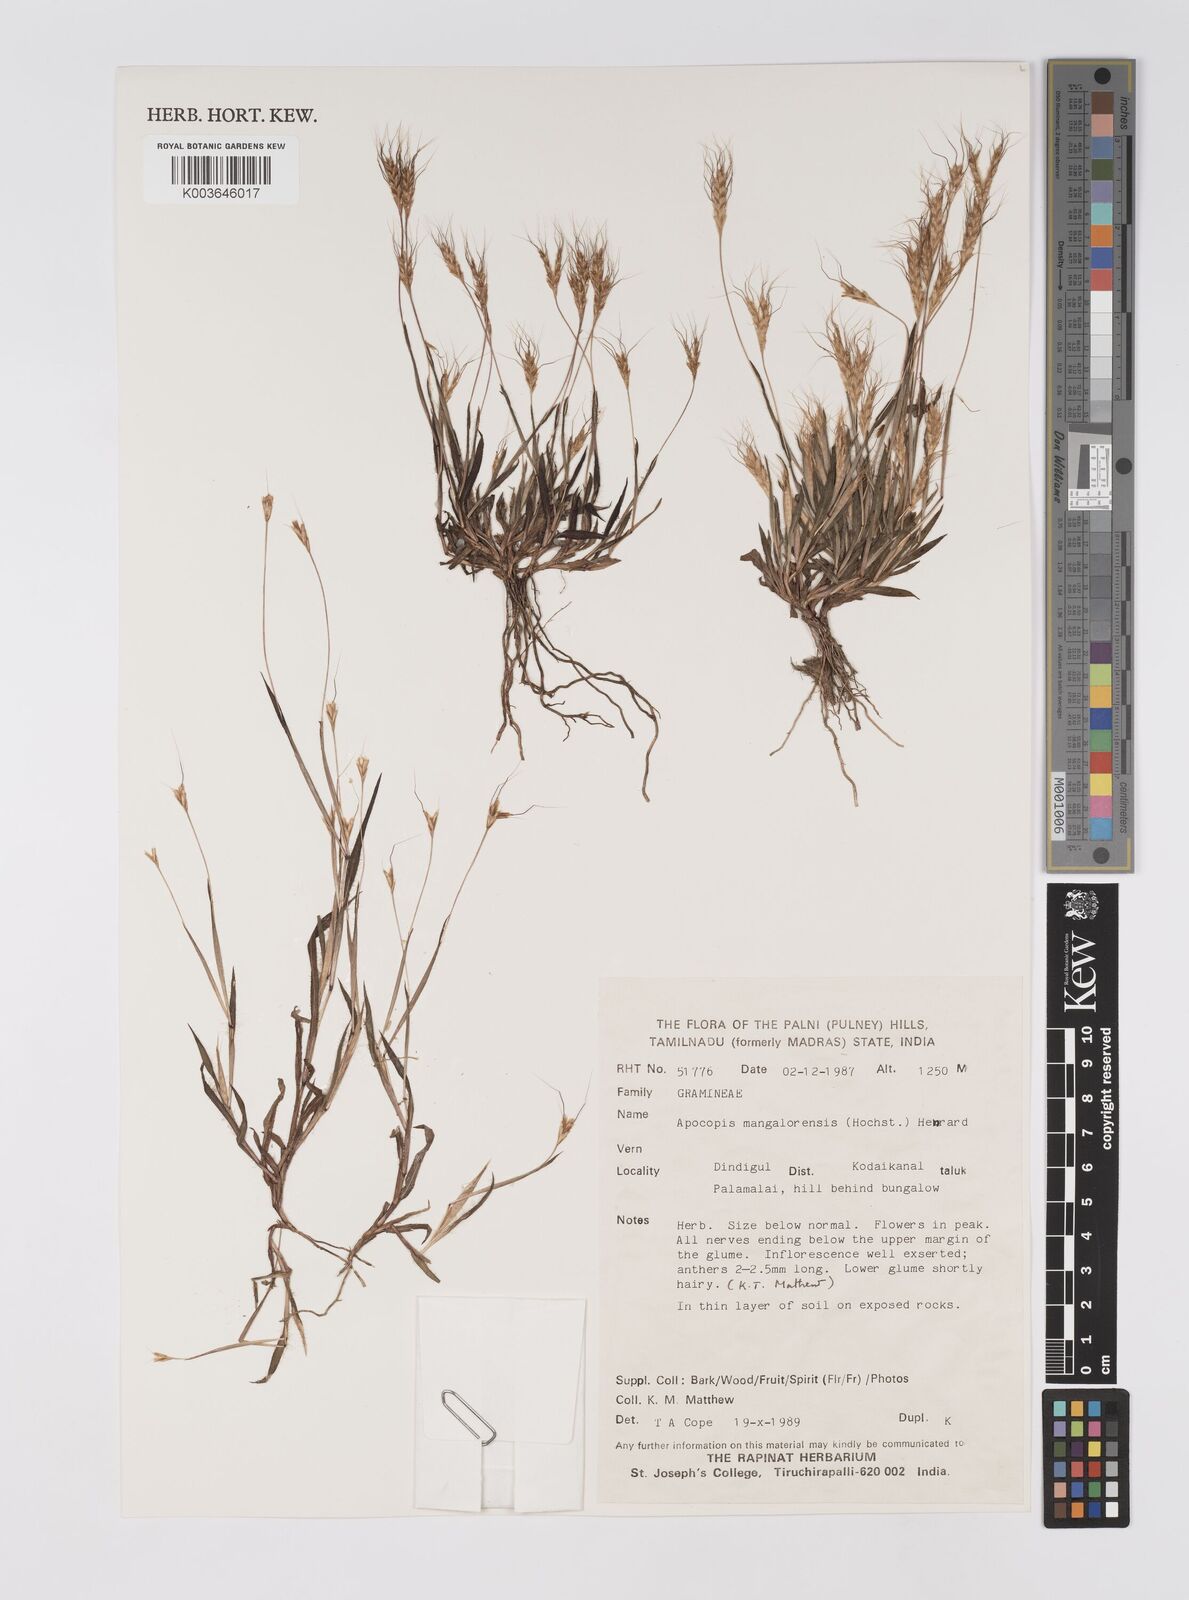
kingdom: Plantae
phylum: Tracheophyta
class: Liliopsida
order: Poales
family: Poaceae
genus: Apocopis
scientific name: Apocopis mangalorensis
